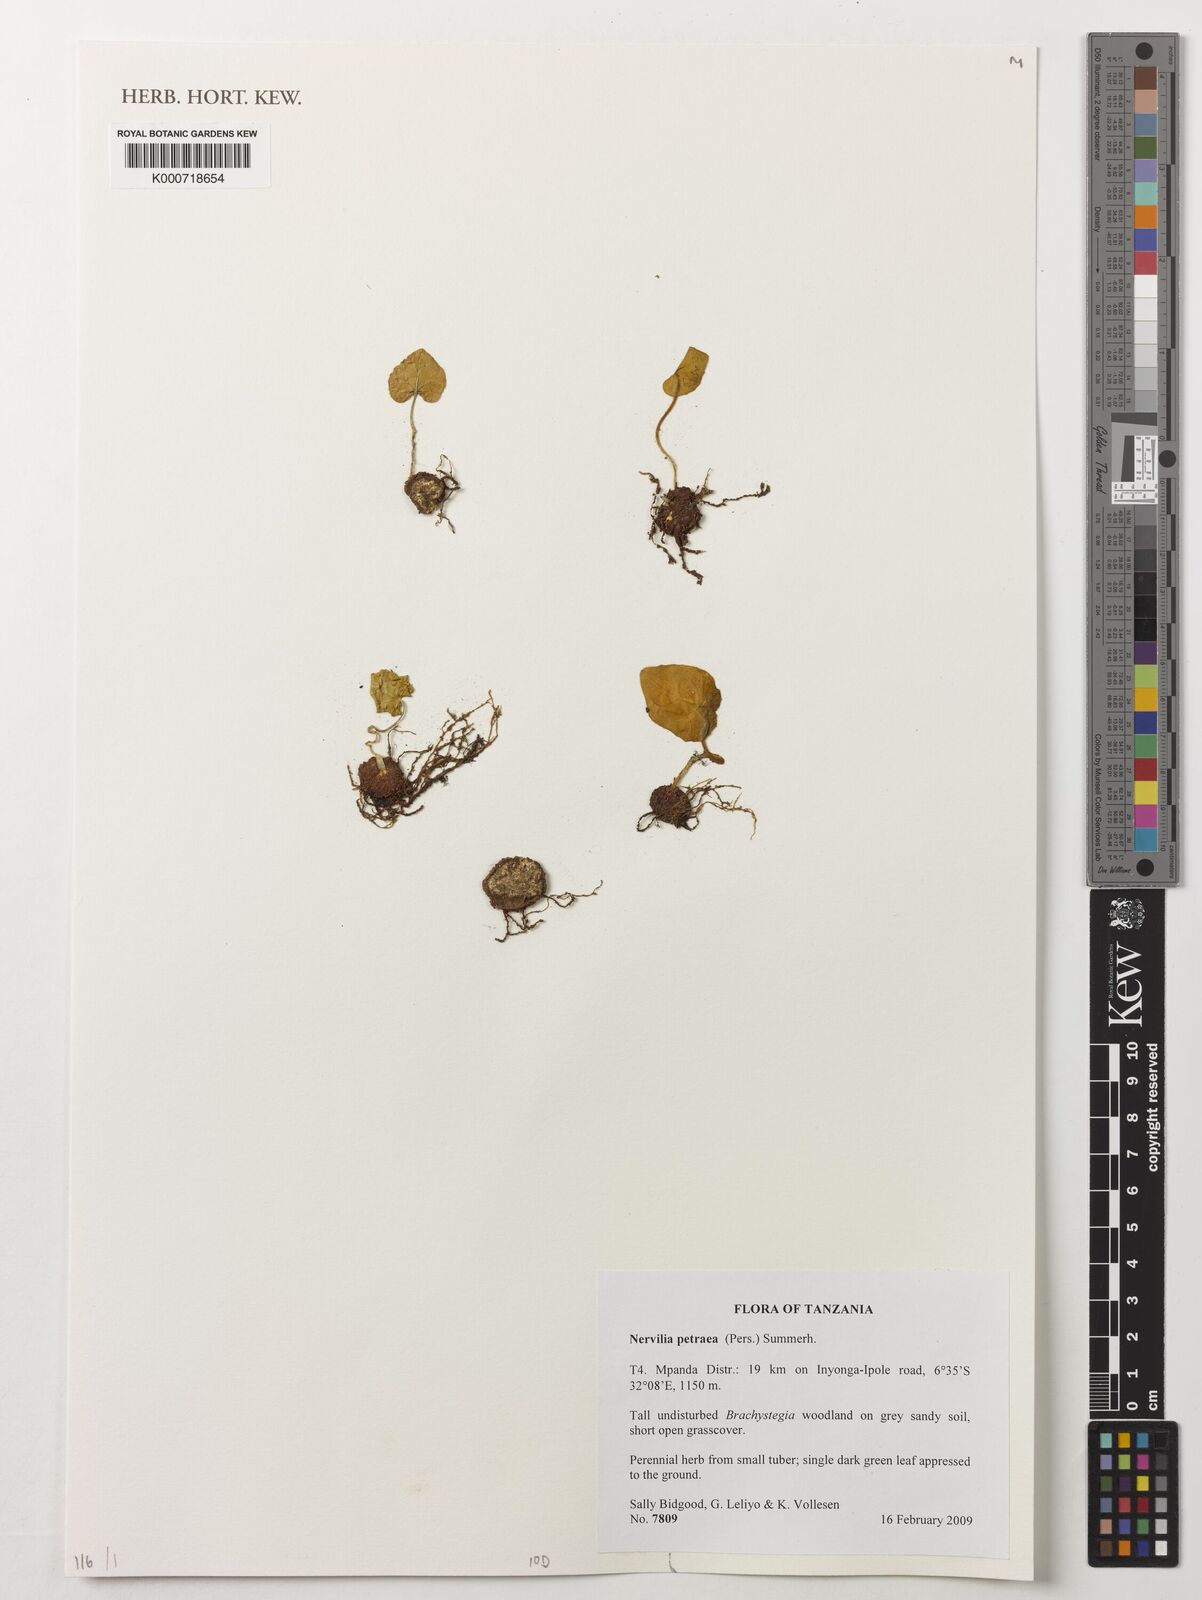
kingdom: Plantae
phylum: Tracheophyta
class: Liliopsida
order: Asparagales
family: Orchidaceae
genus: Nervilia
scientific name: Nervilia petraea
